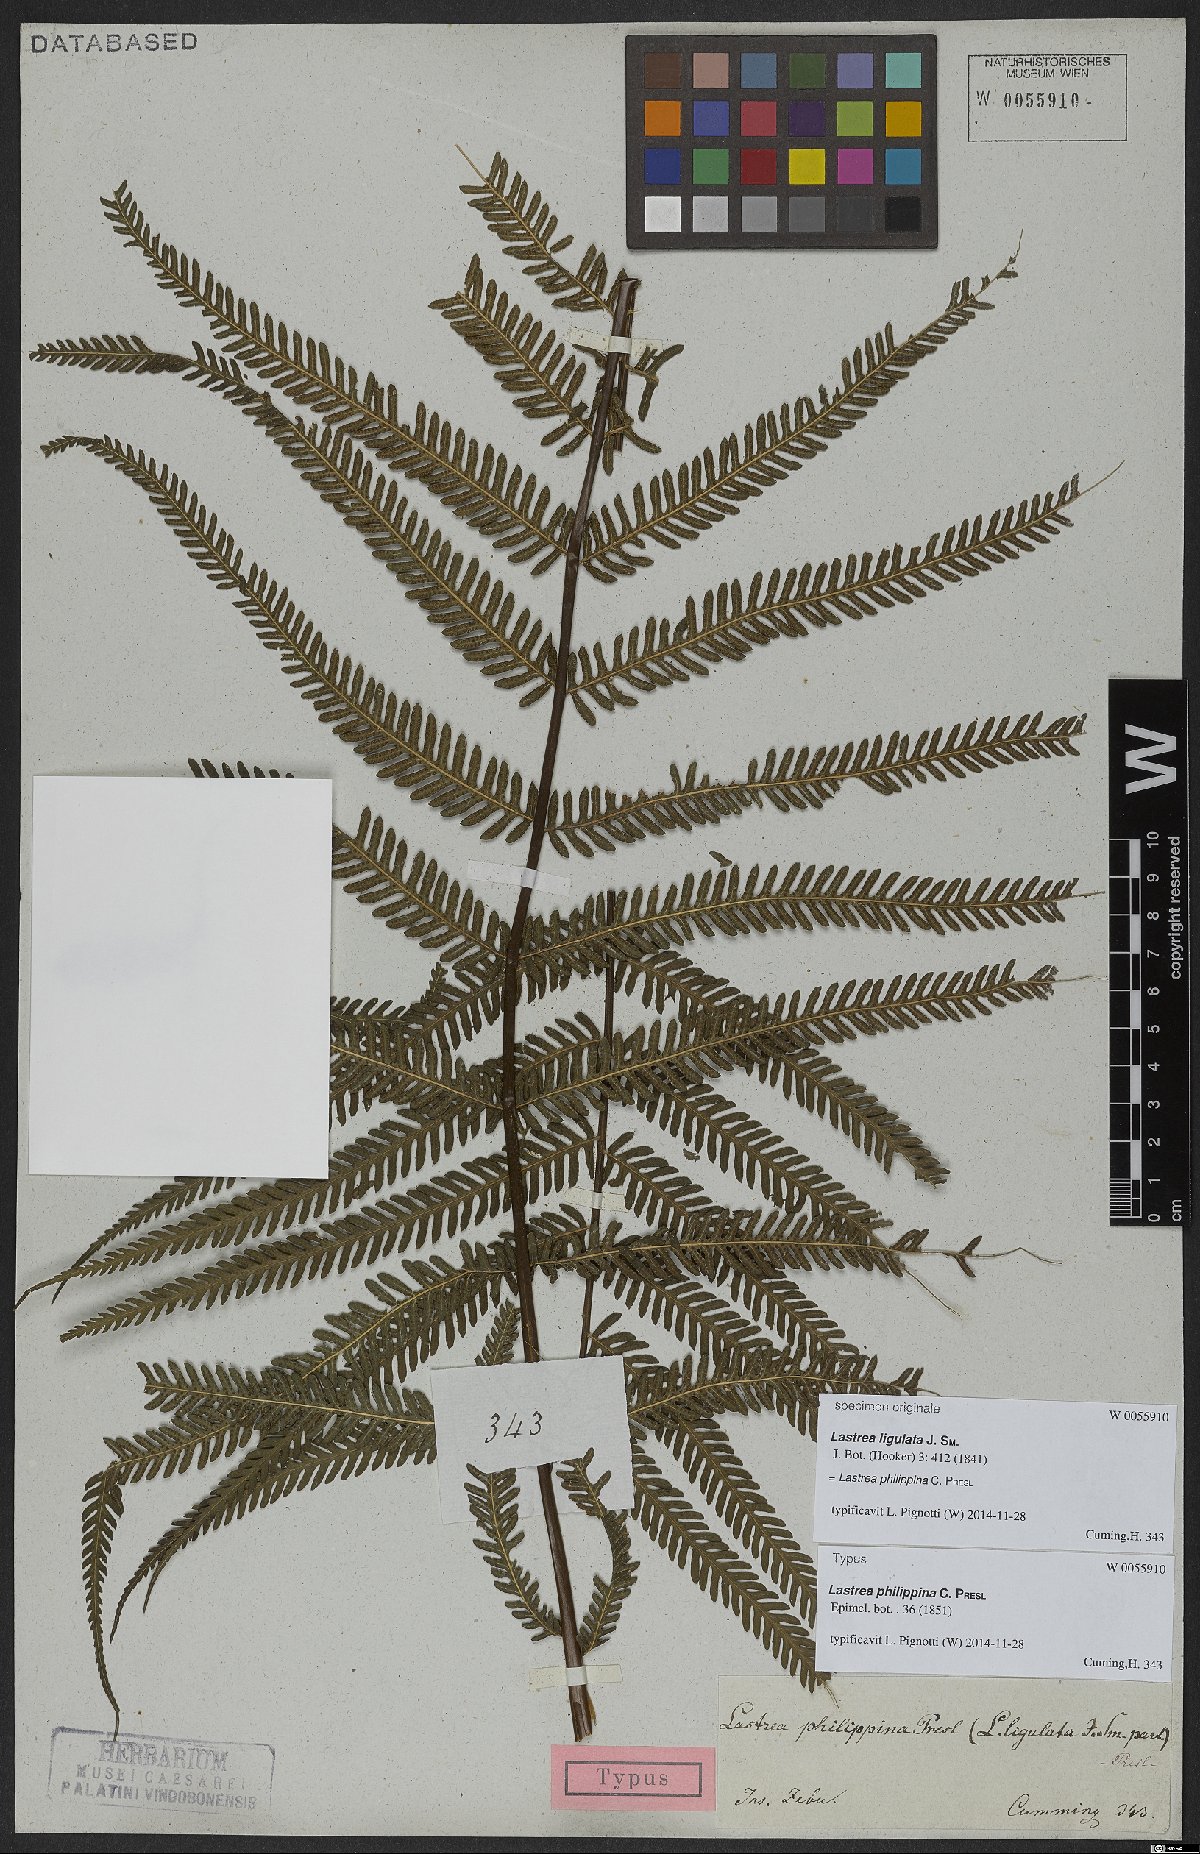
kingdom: Plantae
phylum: Tracheophyta
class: Polypodiopsida
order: Polypodiales
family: Thelypteridaceae
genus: Plesioneuron
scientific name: Plesioneuron ligulatum
